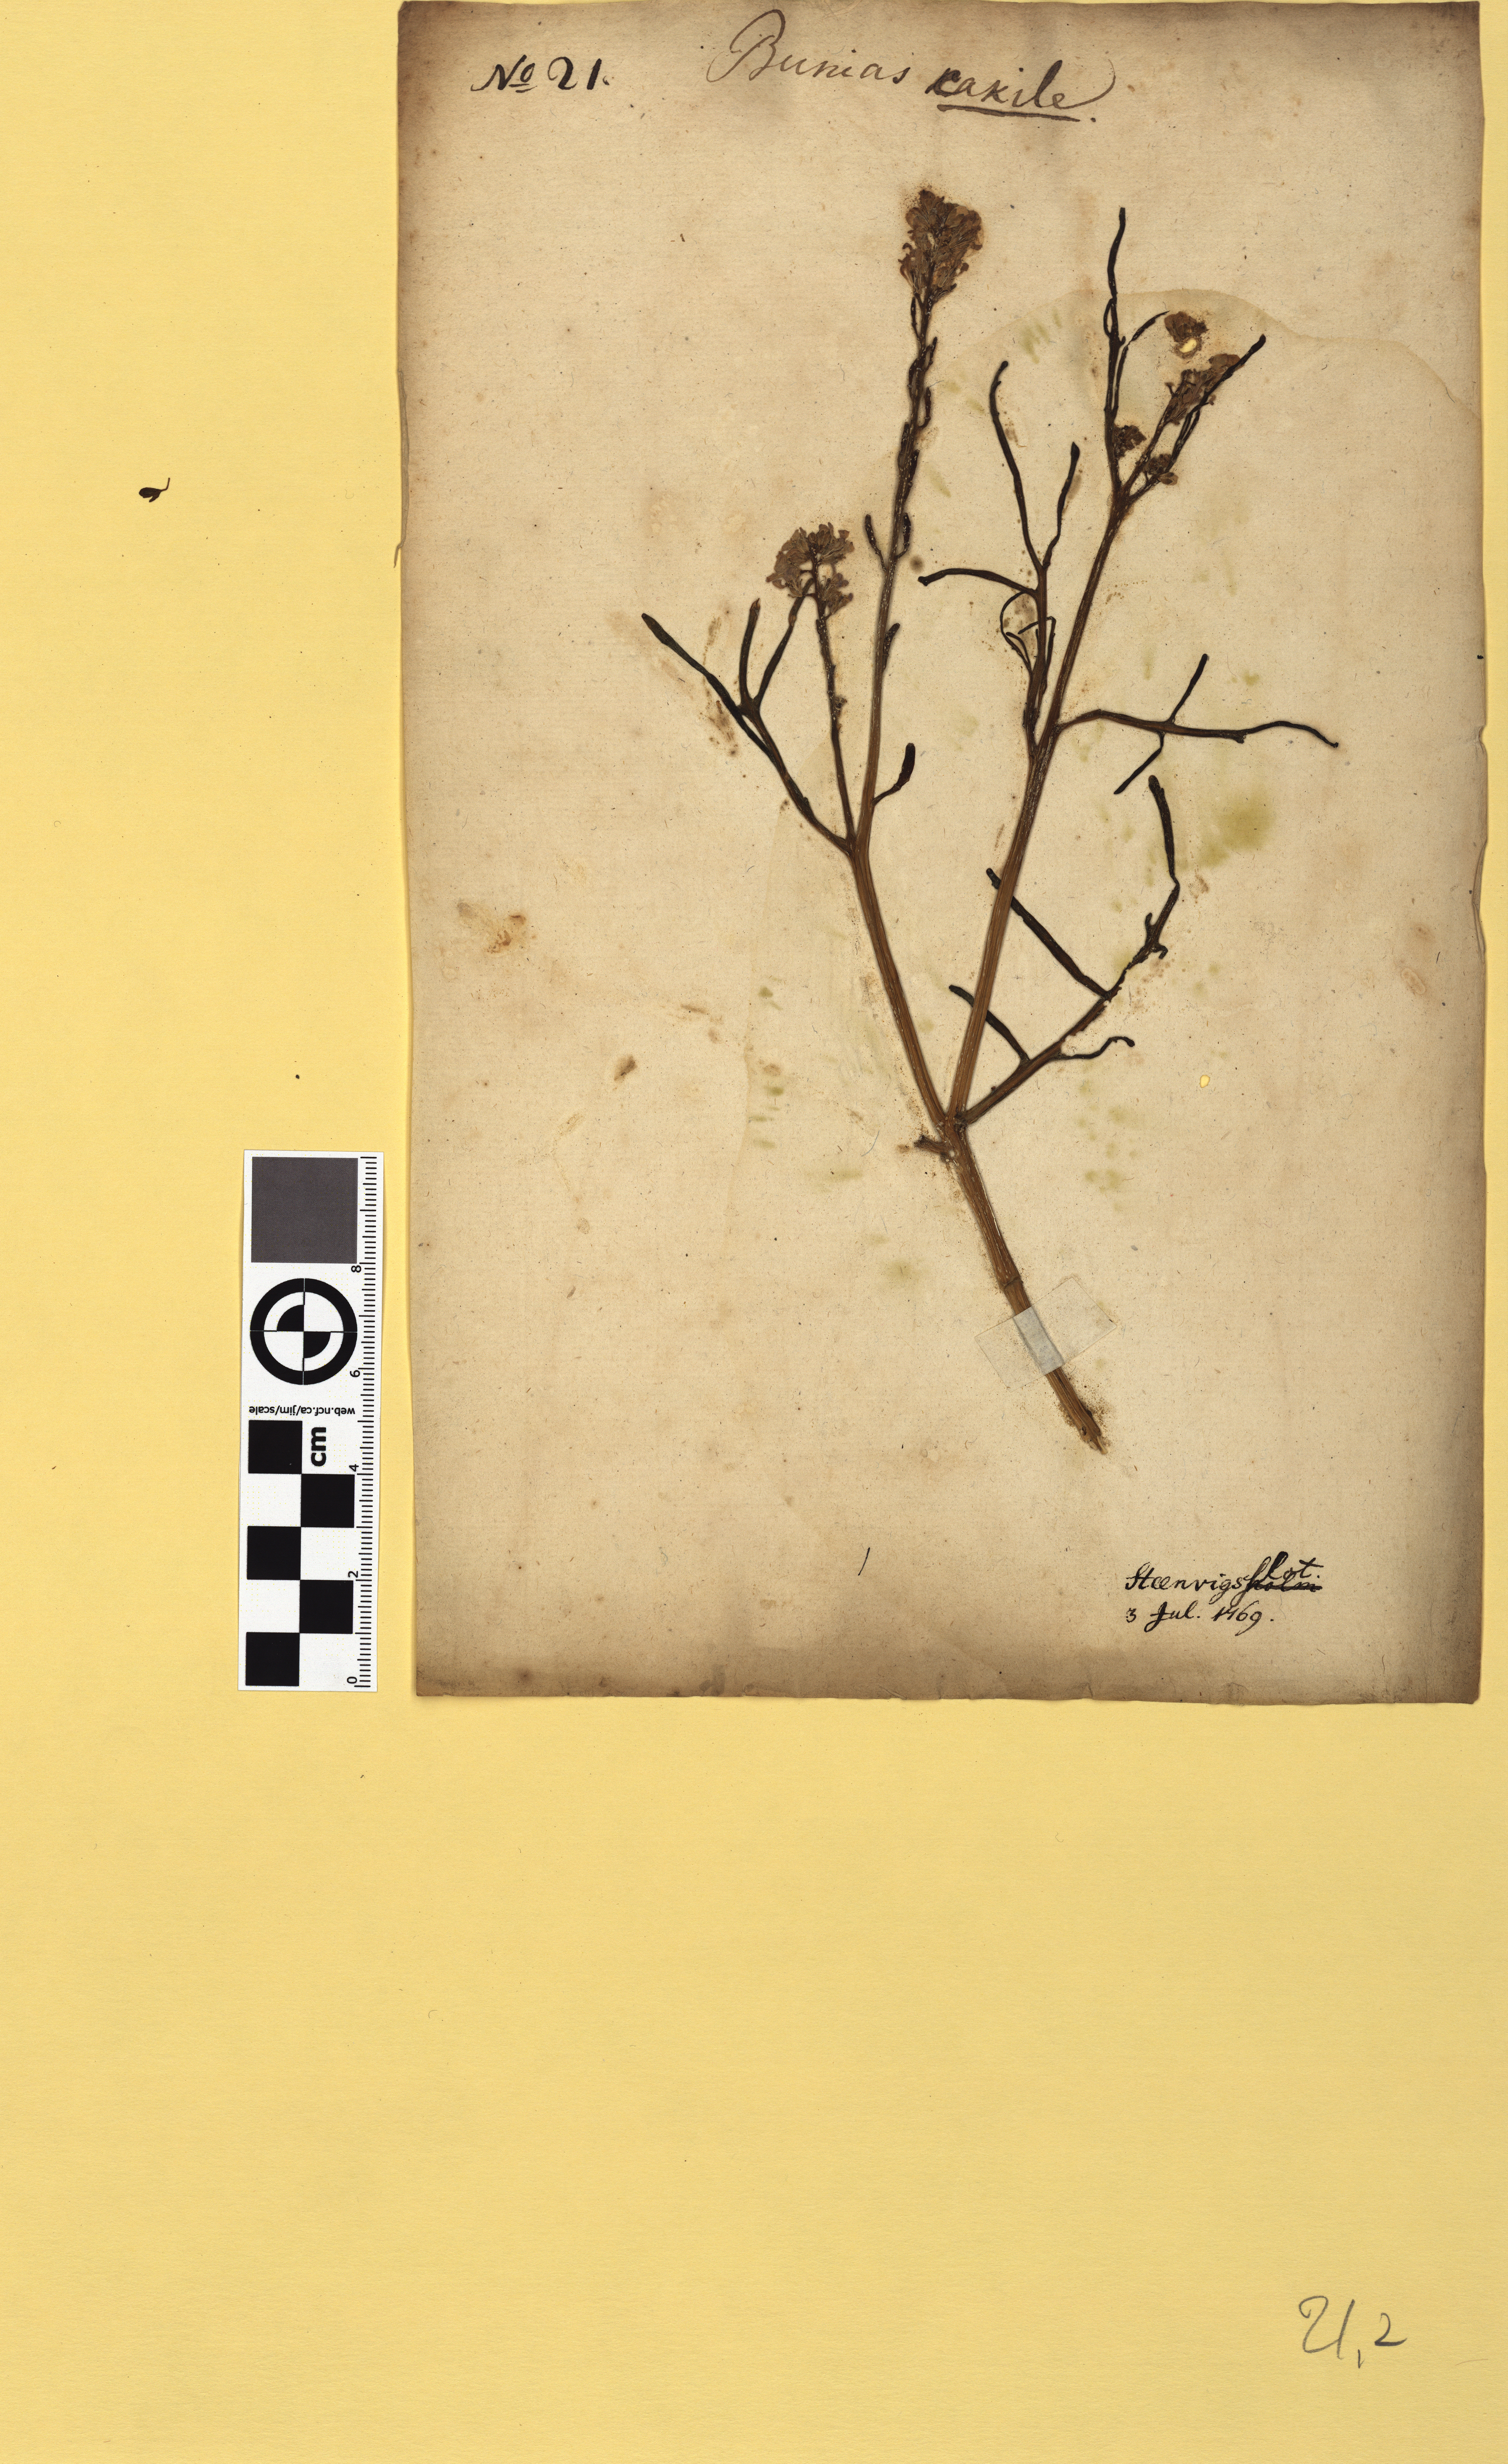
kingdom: Plantae
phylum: Tracheophyta
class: Magnoliopsida
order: Brassicales
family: Brassicaceae
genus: Cakile
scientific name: Cakile maritima
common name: Sea rocket
